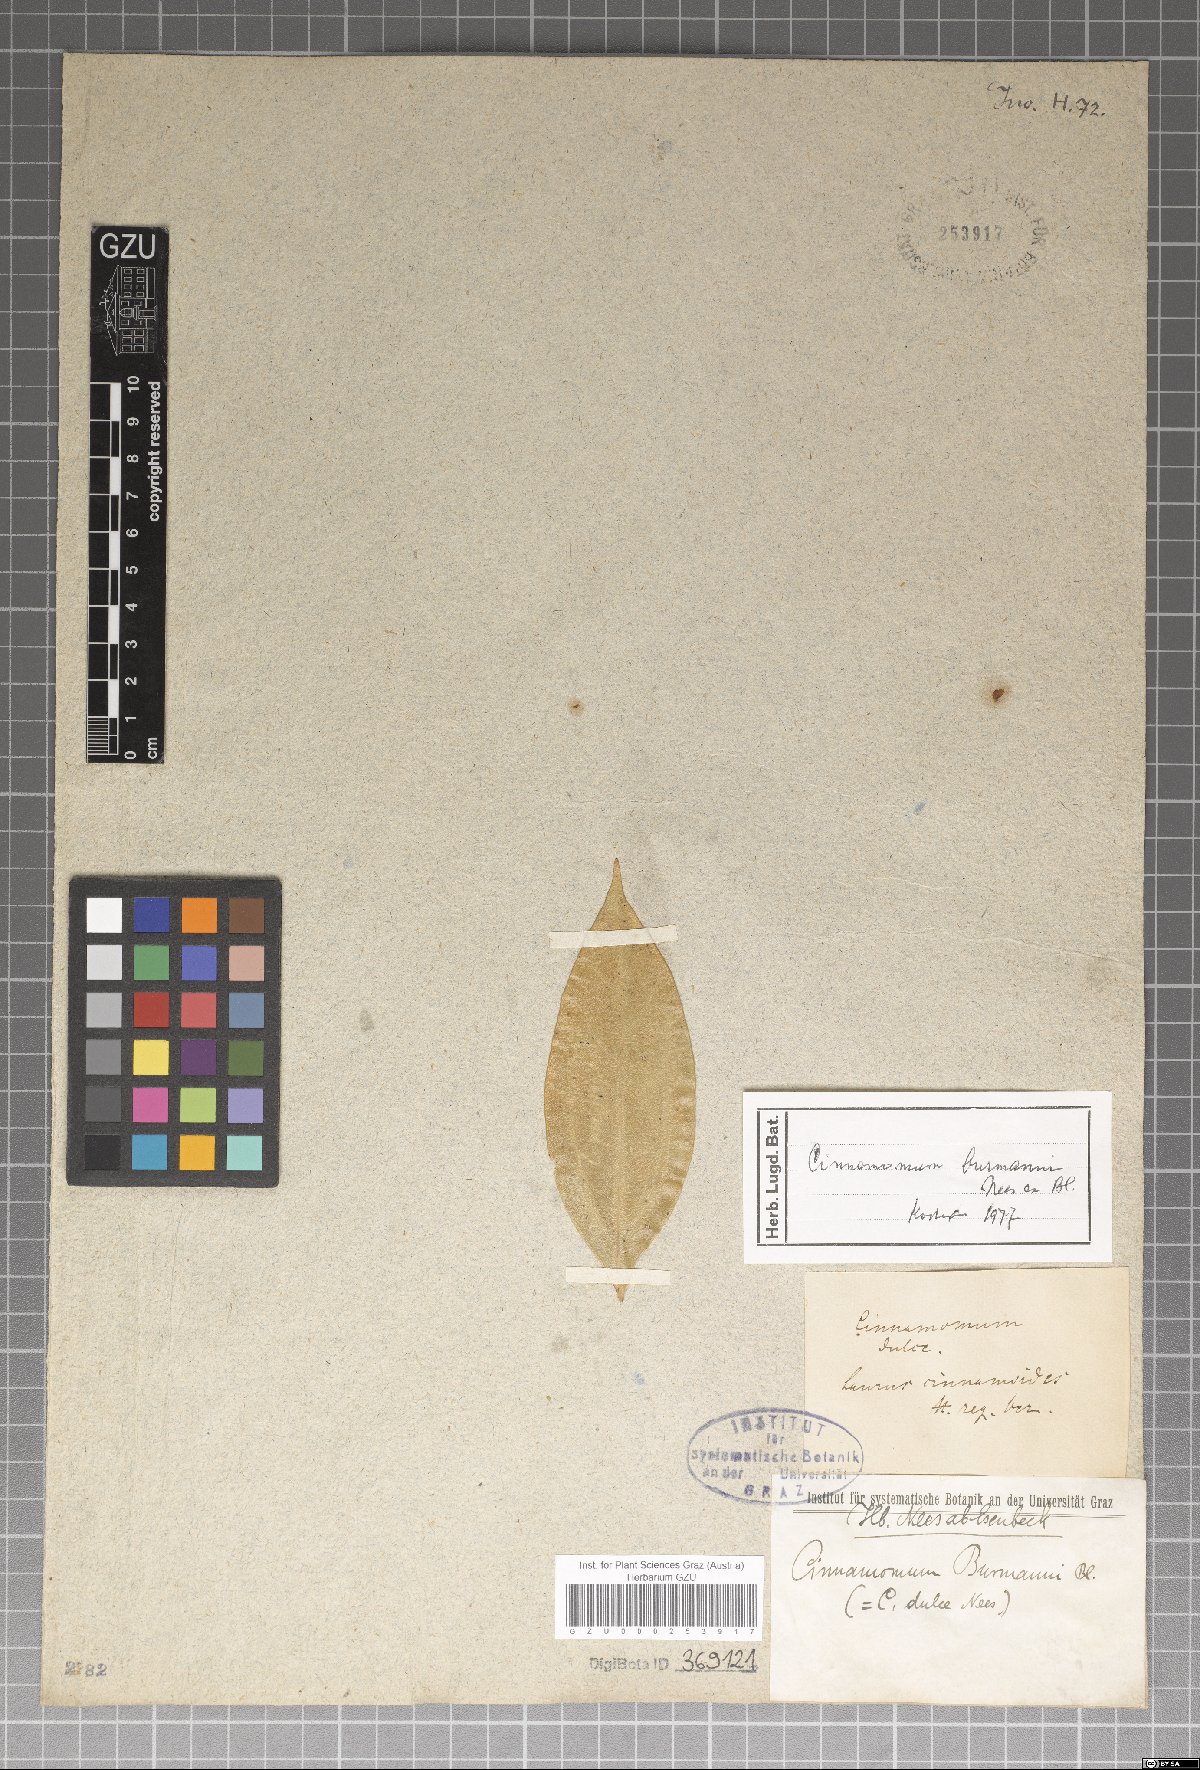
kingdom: Plantae
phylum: Tracheophyta
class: Magnoliopsida
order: Laurales
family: Lauraceae
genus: Cinnamomum
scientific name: Cinnamomum burmanni
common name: Padang cassia
